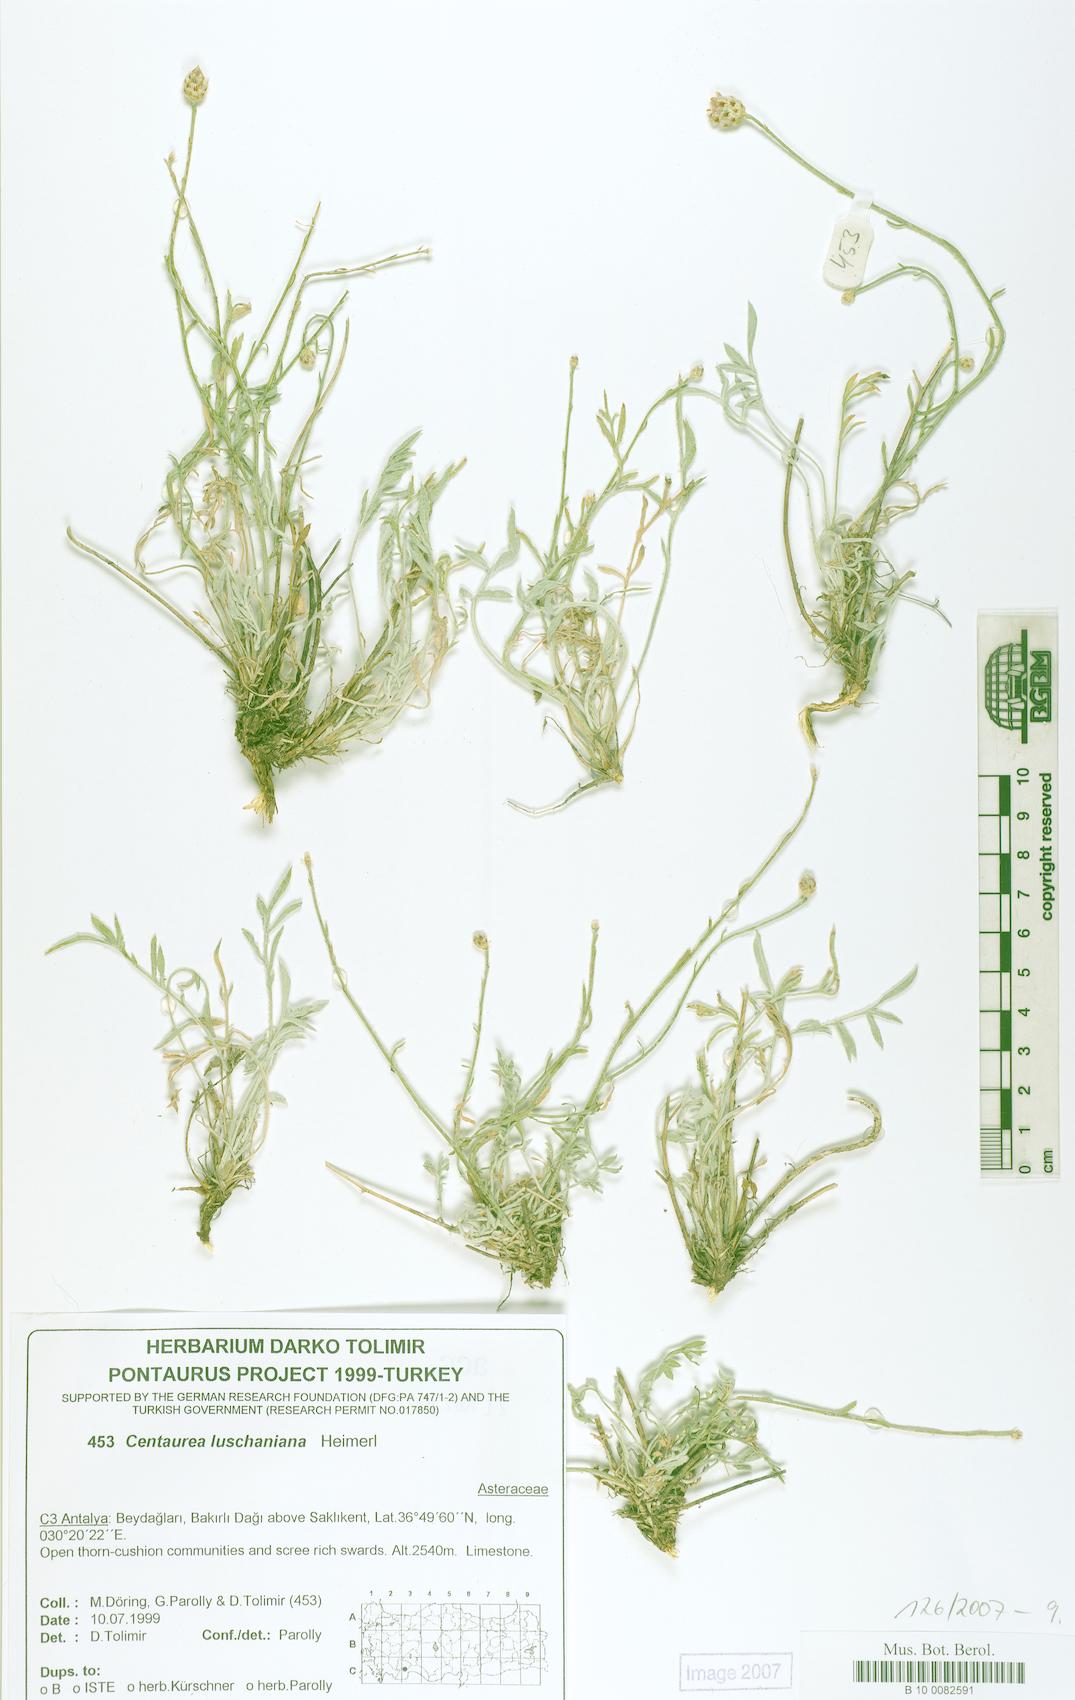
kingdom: Plantae
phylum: Tracheophyta
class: Magnoliopsida
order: Asterales
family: Asteraceae
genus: Centaurea
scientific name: Centaurea luschaniana
